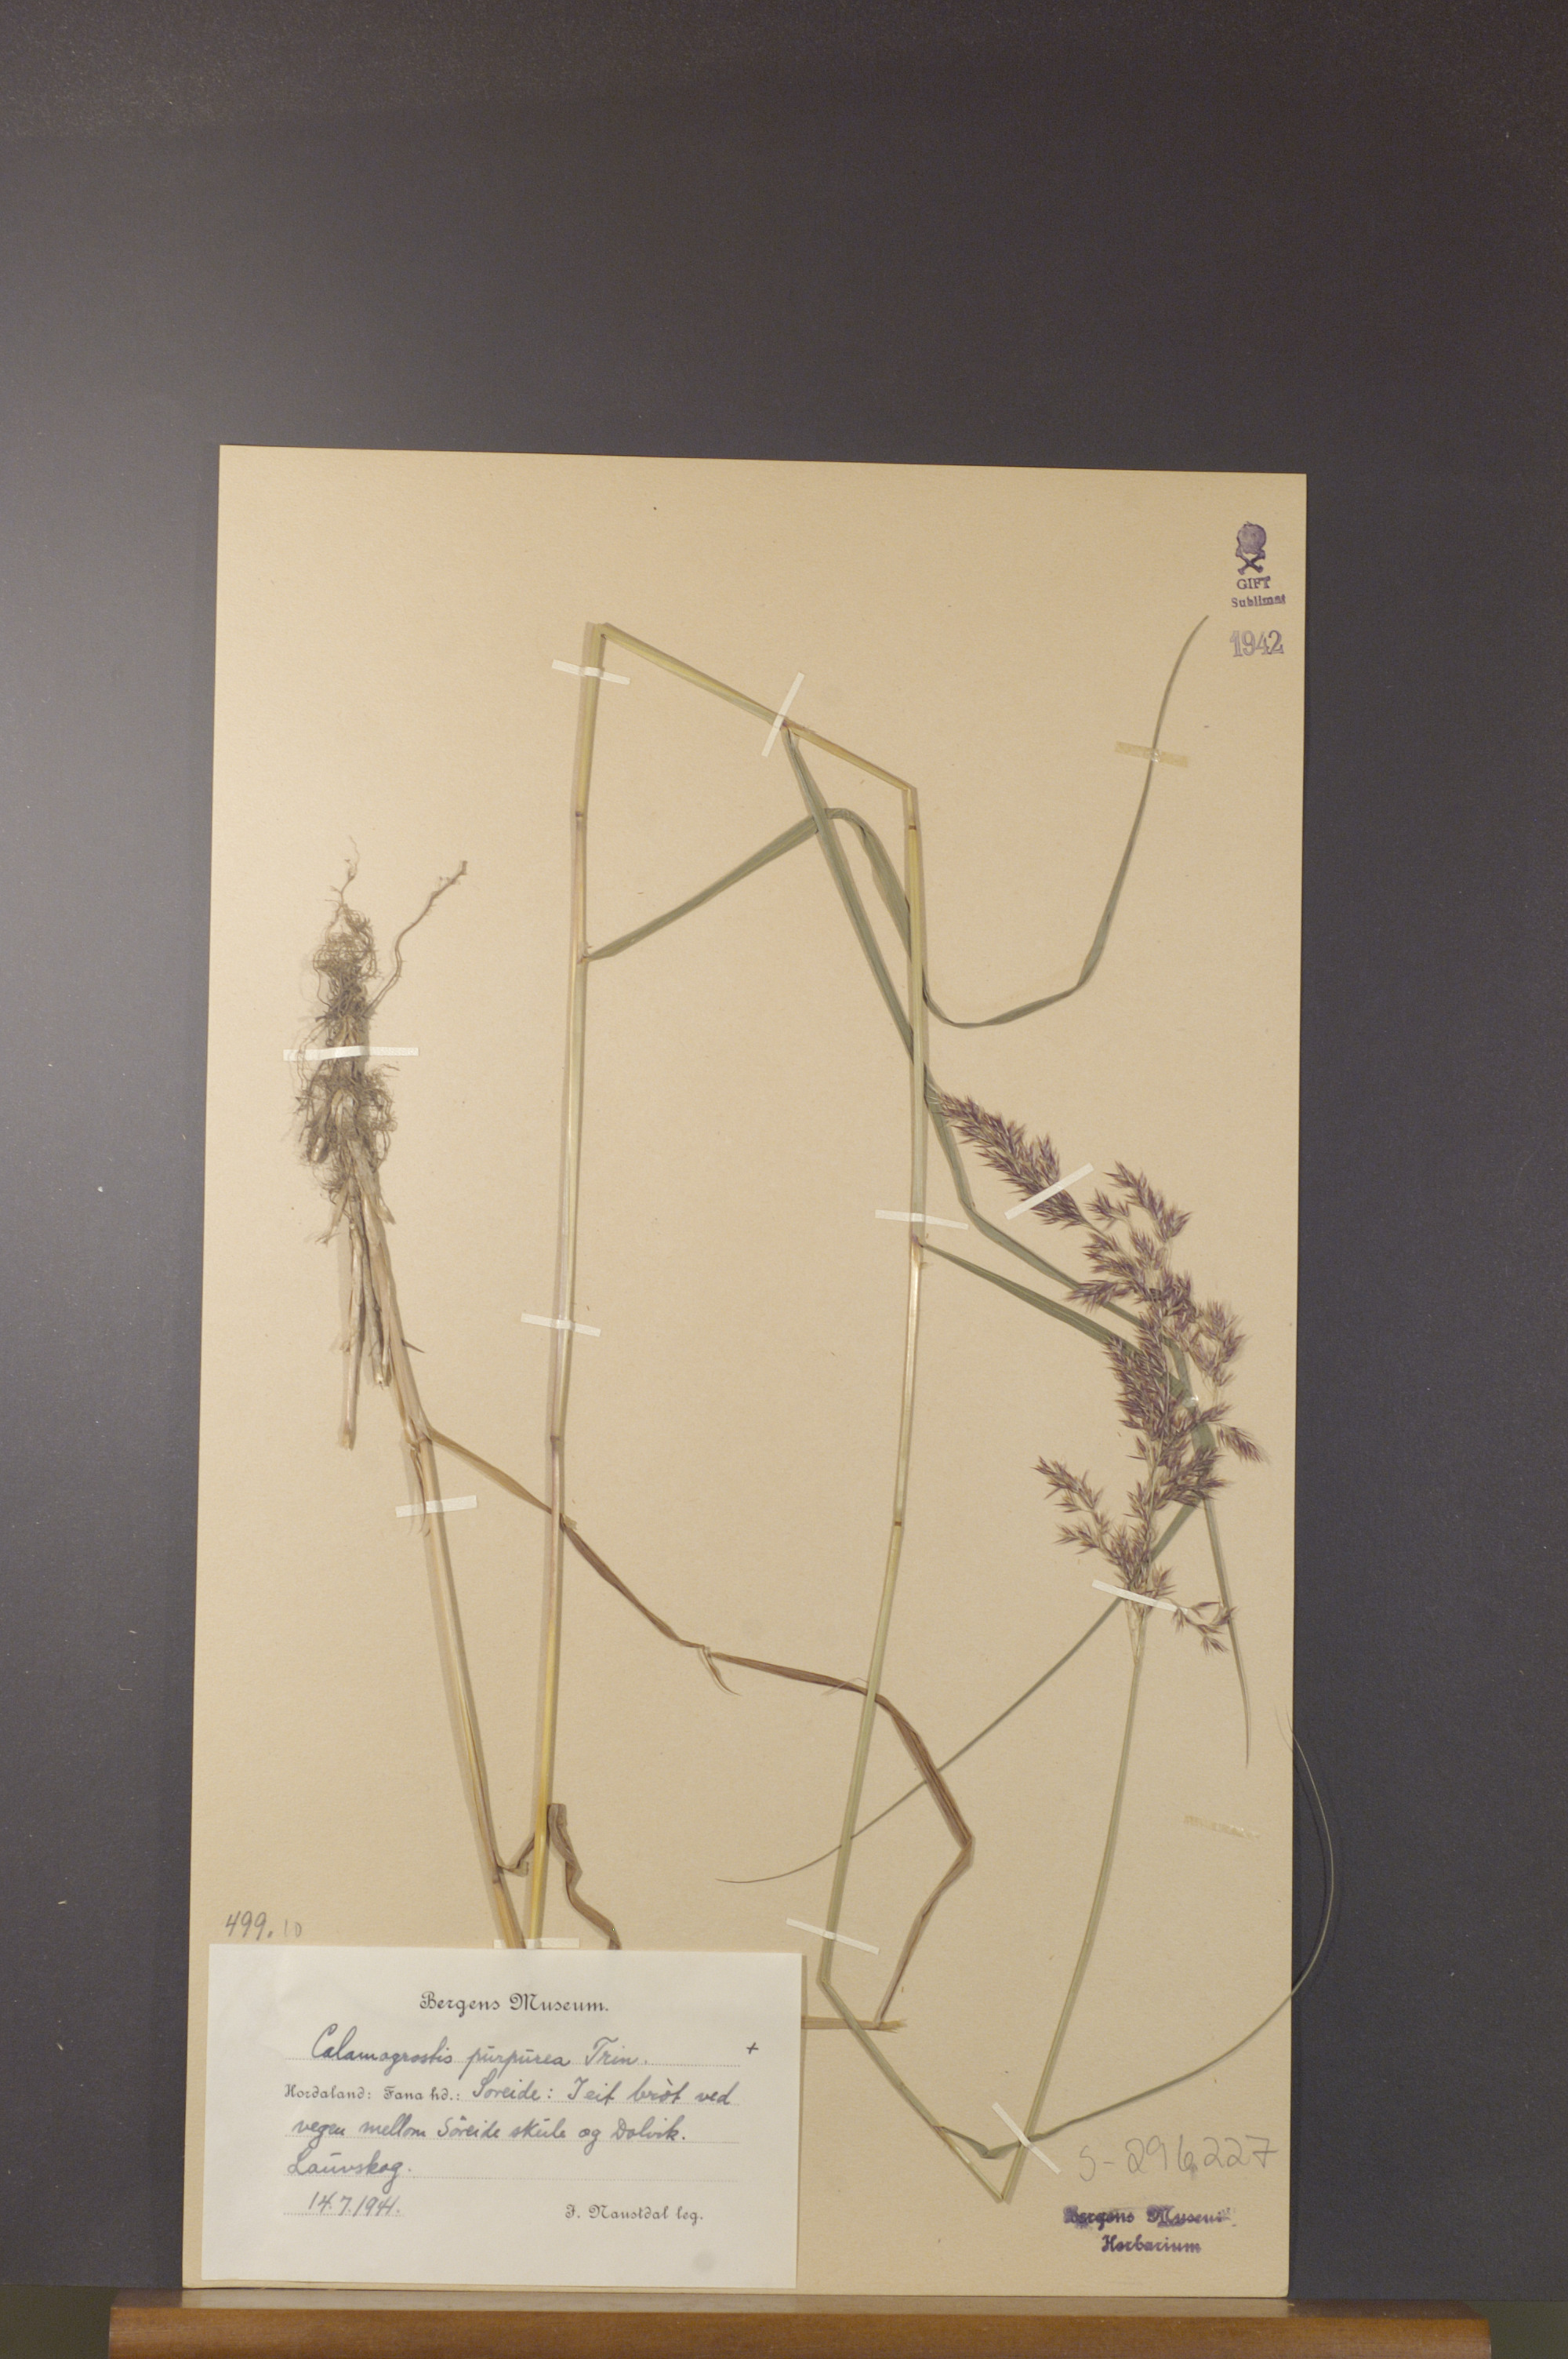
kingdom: Plantae
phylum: Tracheophyta
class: Liliopsida
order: Poales
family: Poaceae
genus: Calamagrostis
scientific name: Calamagrostis purpurea
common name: Scandinavian small-reed
